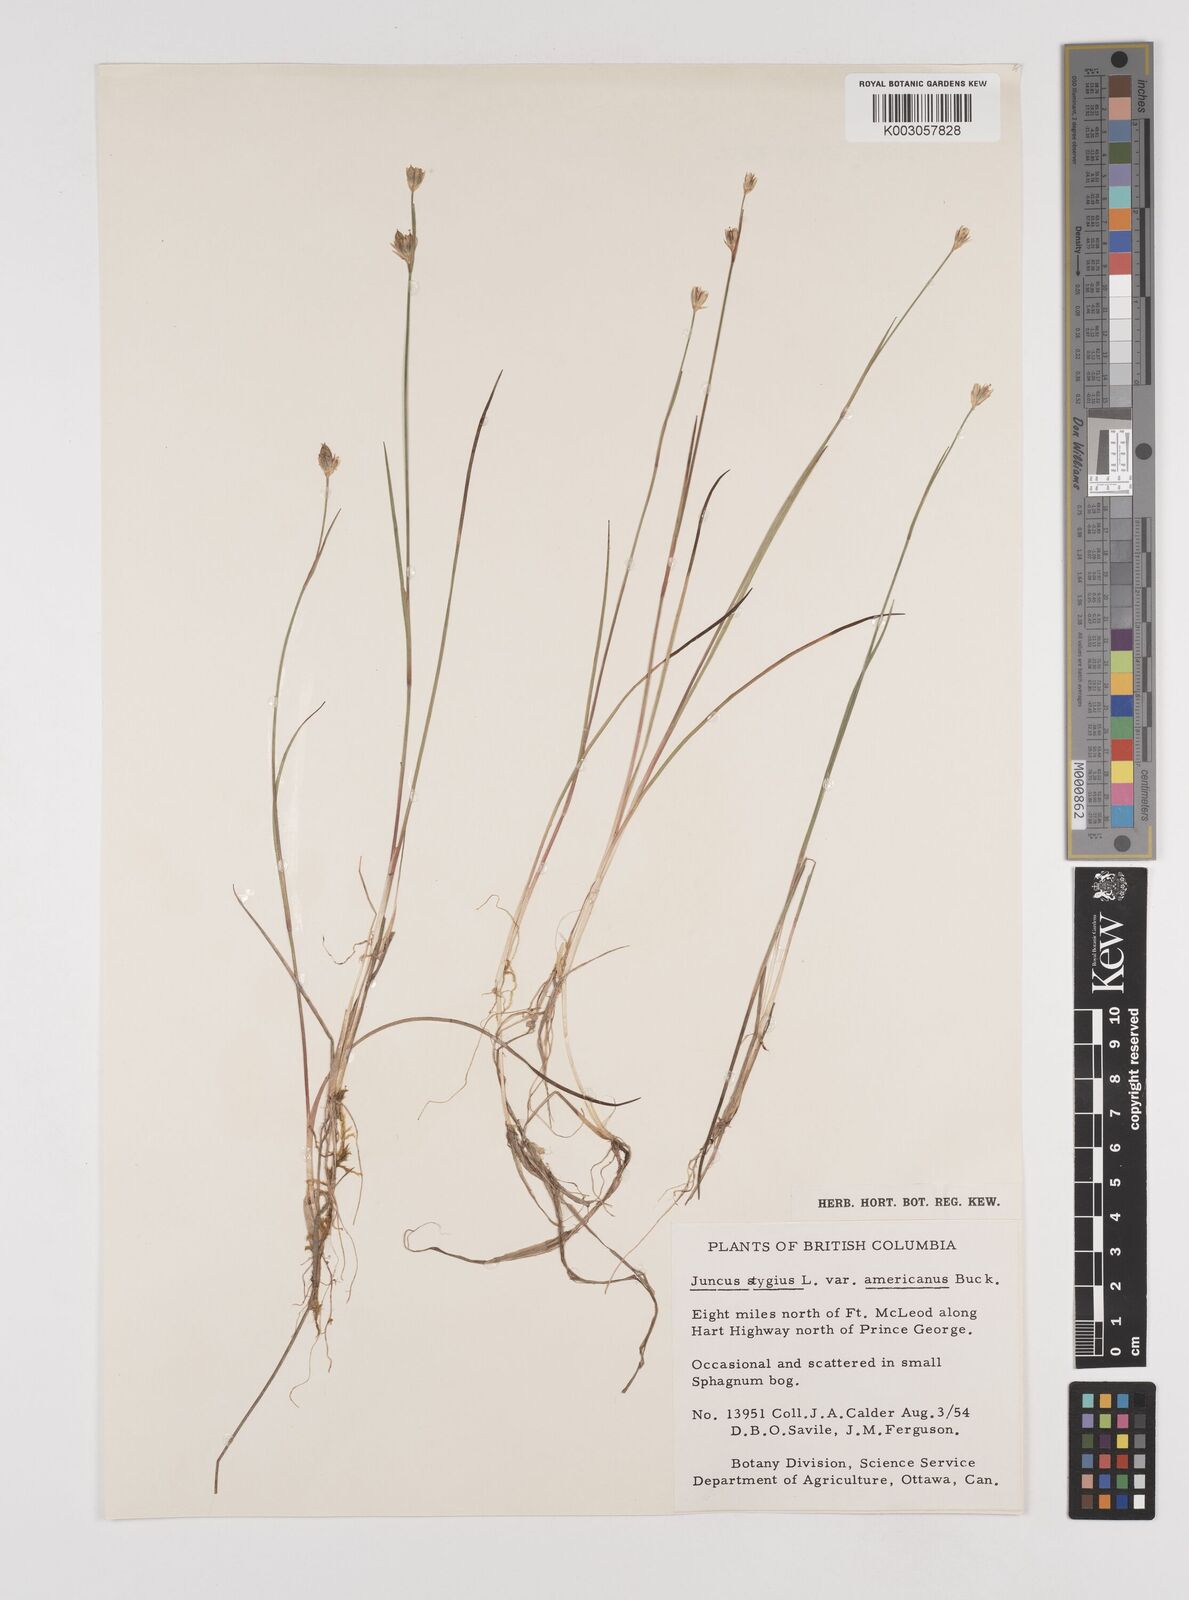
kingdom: Plantae
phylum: Tracheophyta
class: Liliopsida
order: Poales
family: Juncaceae
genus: Juncus
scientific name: Juncus stygius
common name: Bog rush
